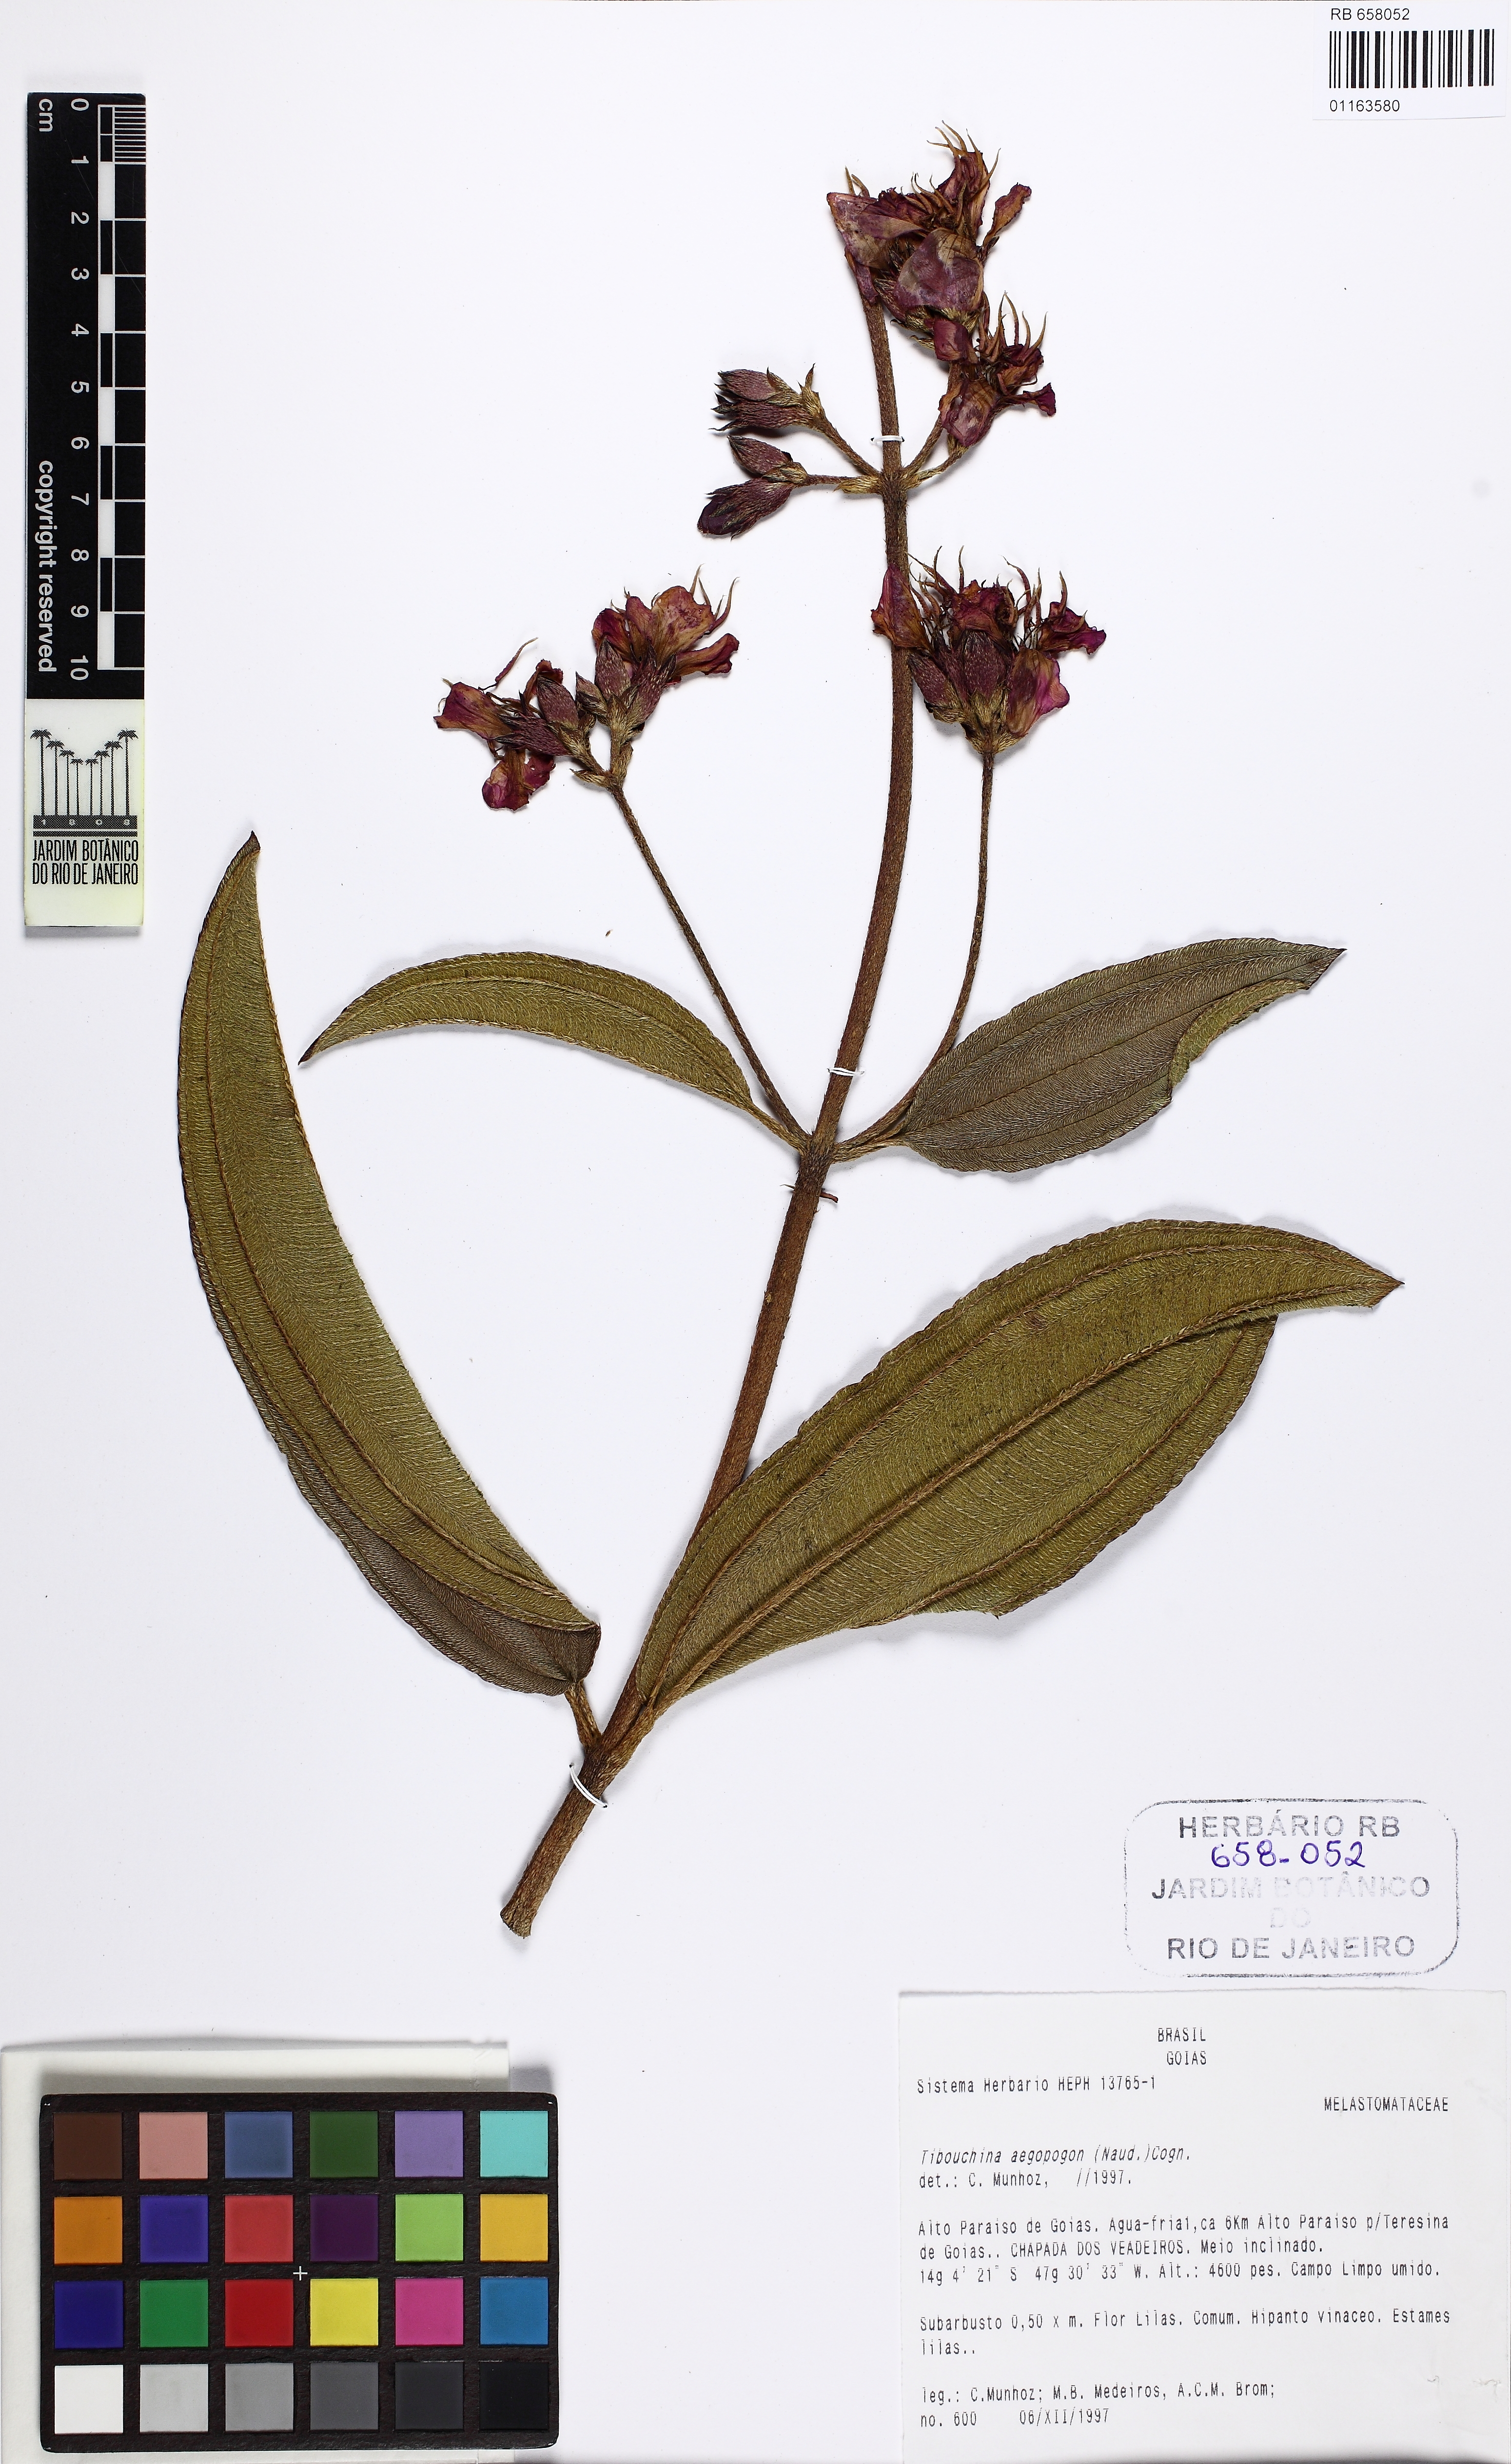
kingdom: Plantae
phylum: Tracheophyta
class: Magnoliopsida
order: Myrtales
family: Melastomataceae
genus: Pleroma
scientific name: Pleroma aegopogon
